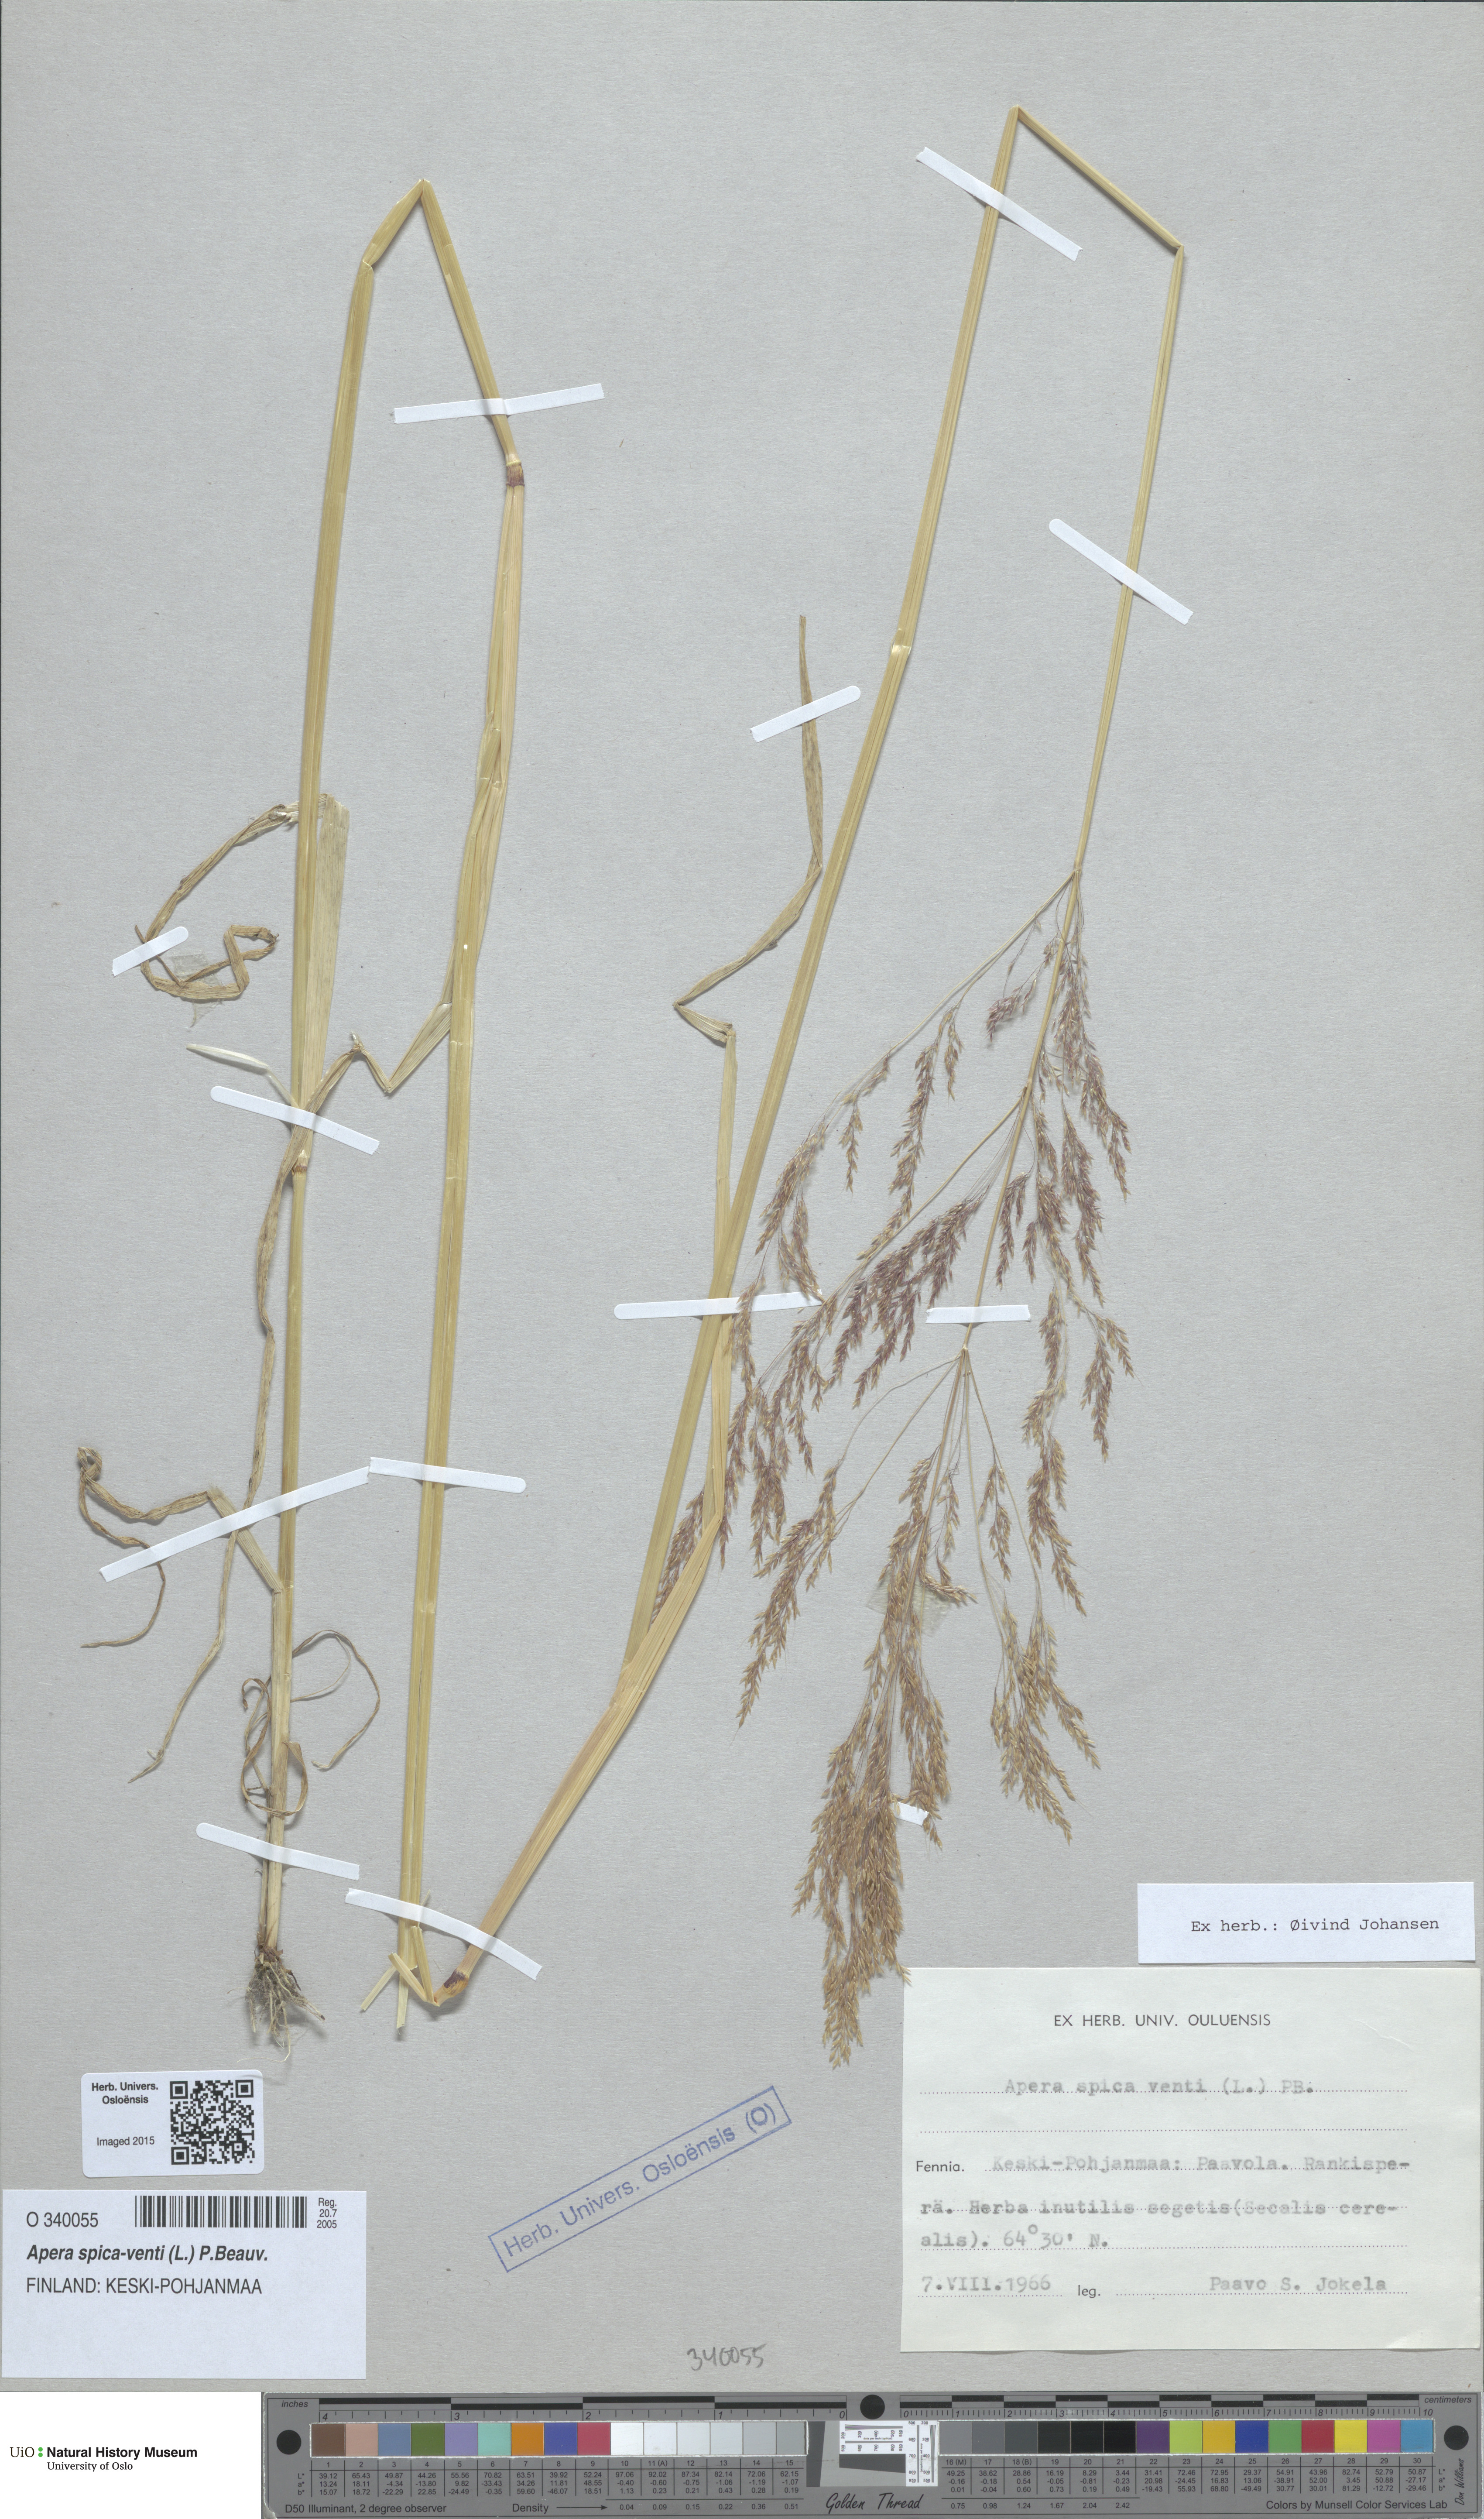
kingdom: Plantae
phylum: Tracheophyta
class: Liliopsida
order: Poales
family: Poaceae
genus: Apera
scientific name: Apera spica-venti
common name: Loose silky-bent
